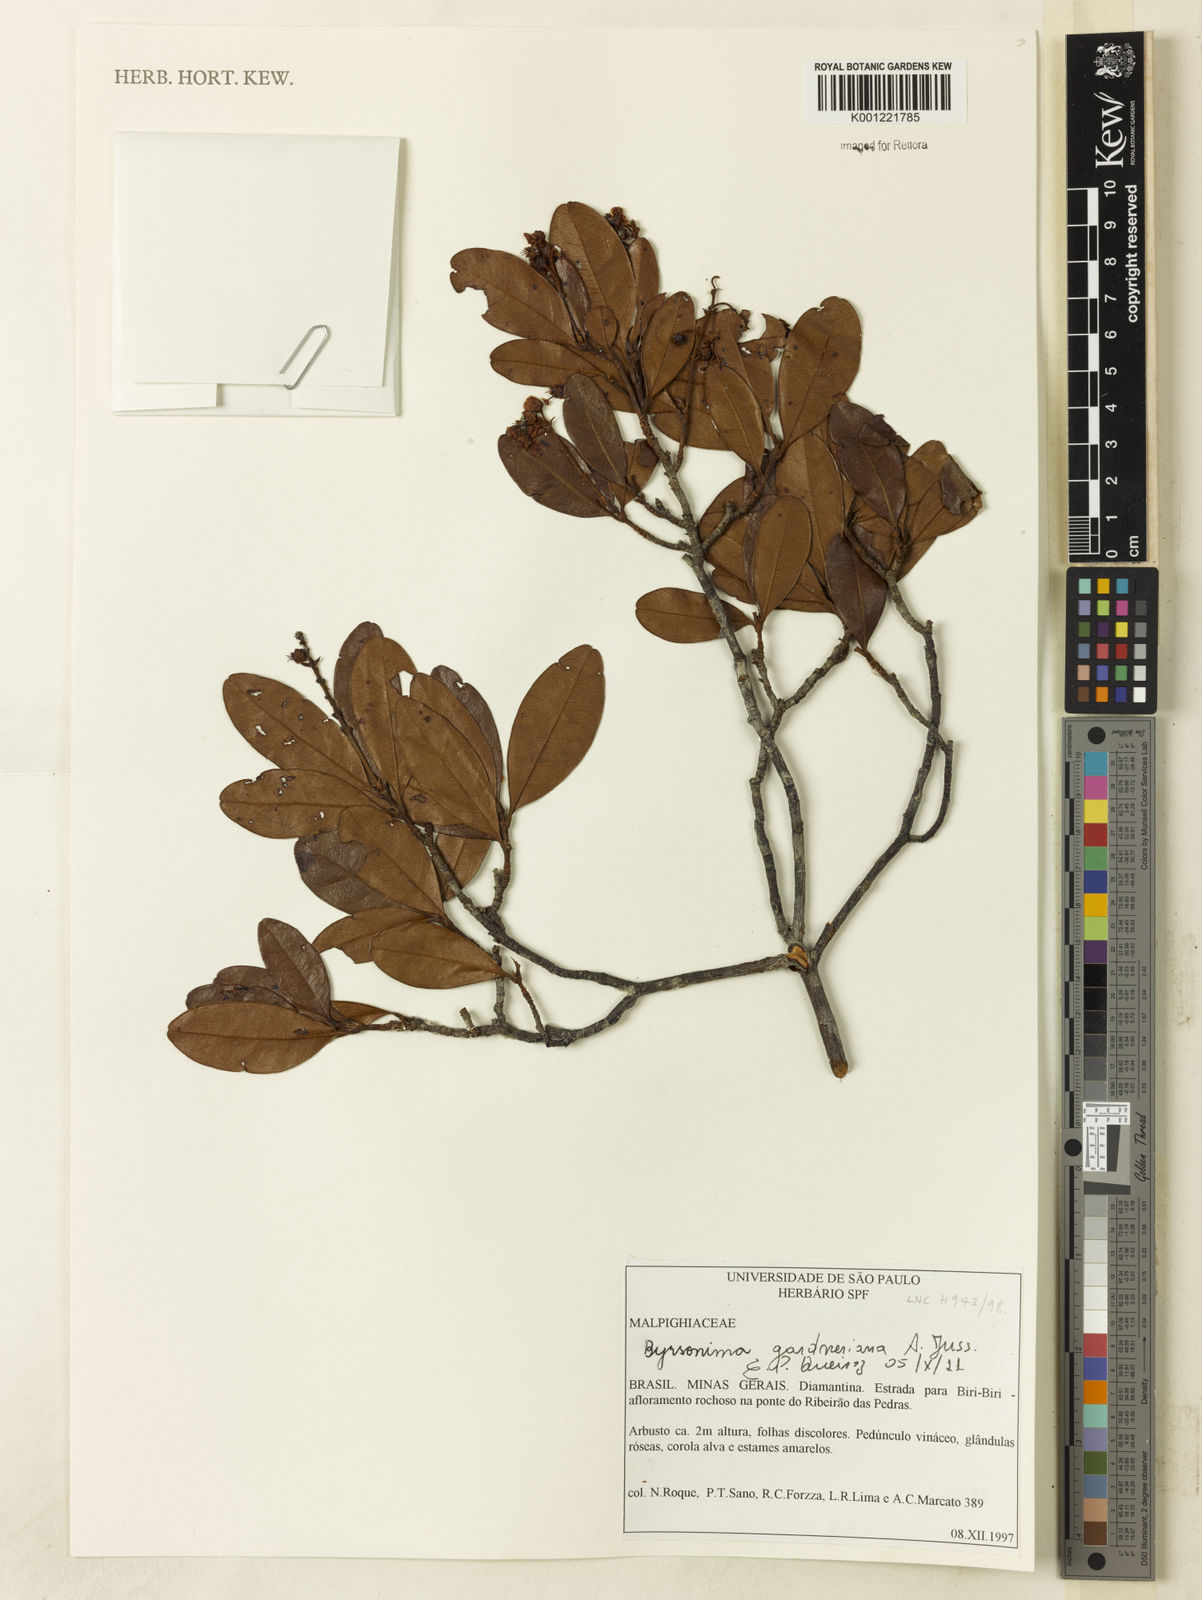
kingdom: Plantae
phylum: Tracheophyta
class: Magnoliopsida
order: Malpighiales
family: Malpighiaceae
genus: Byrsonima
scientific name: Byrsonima gardneriana
